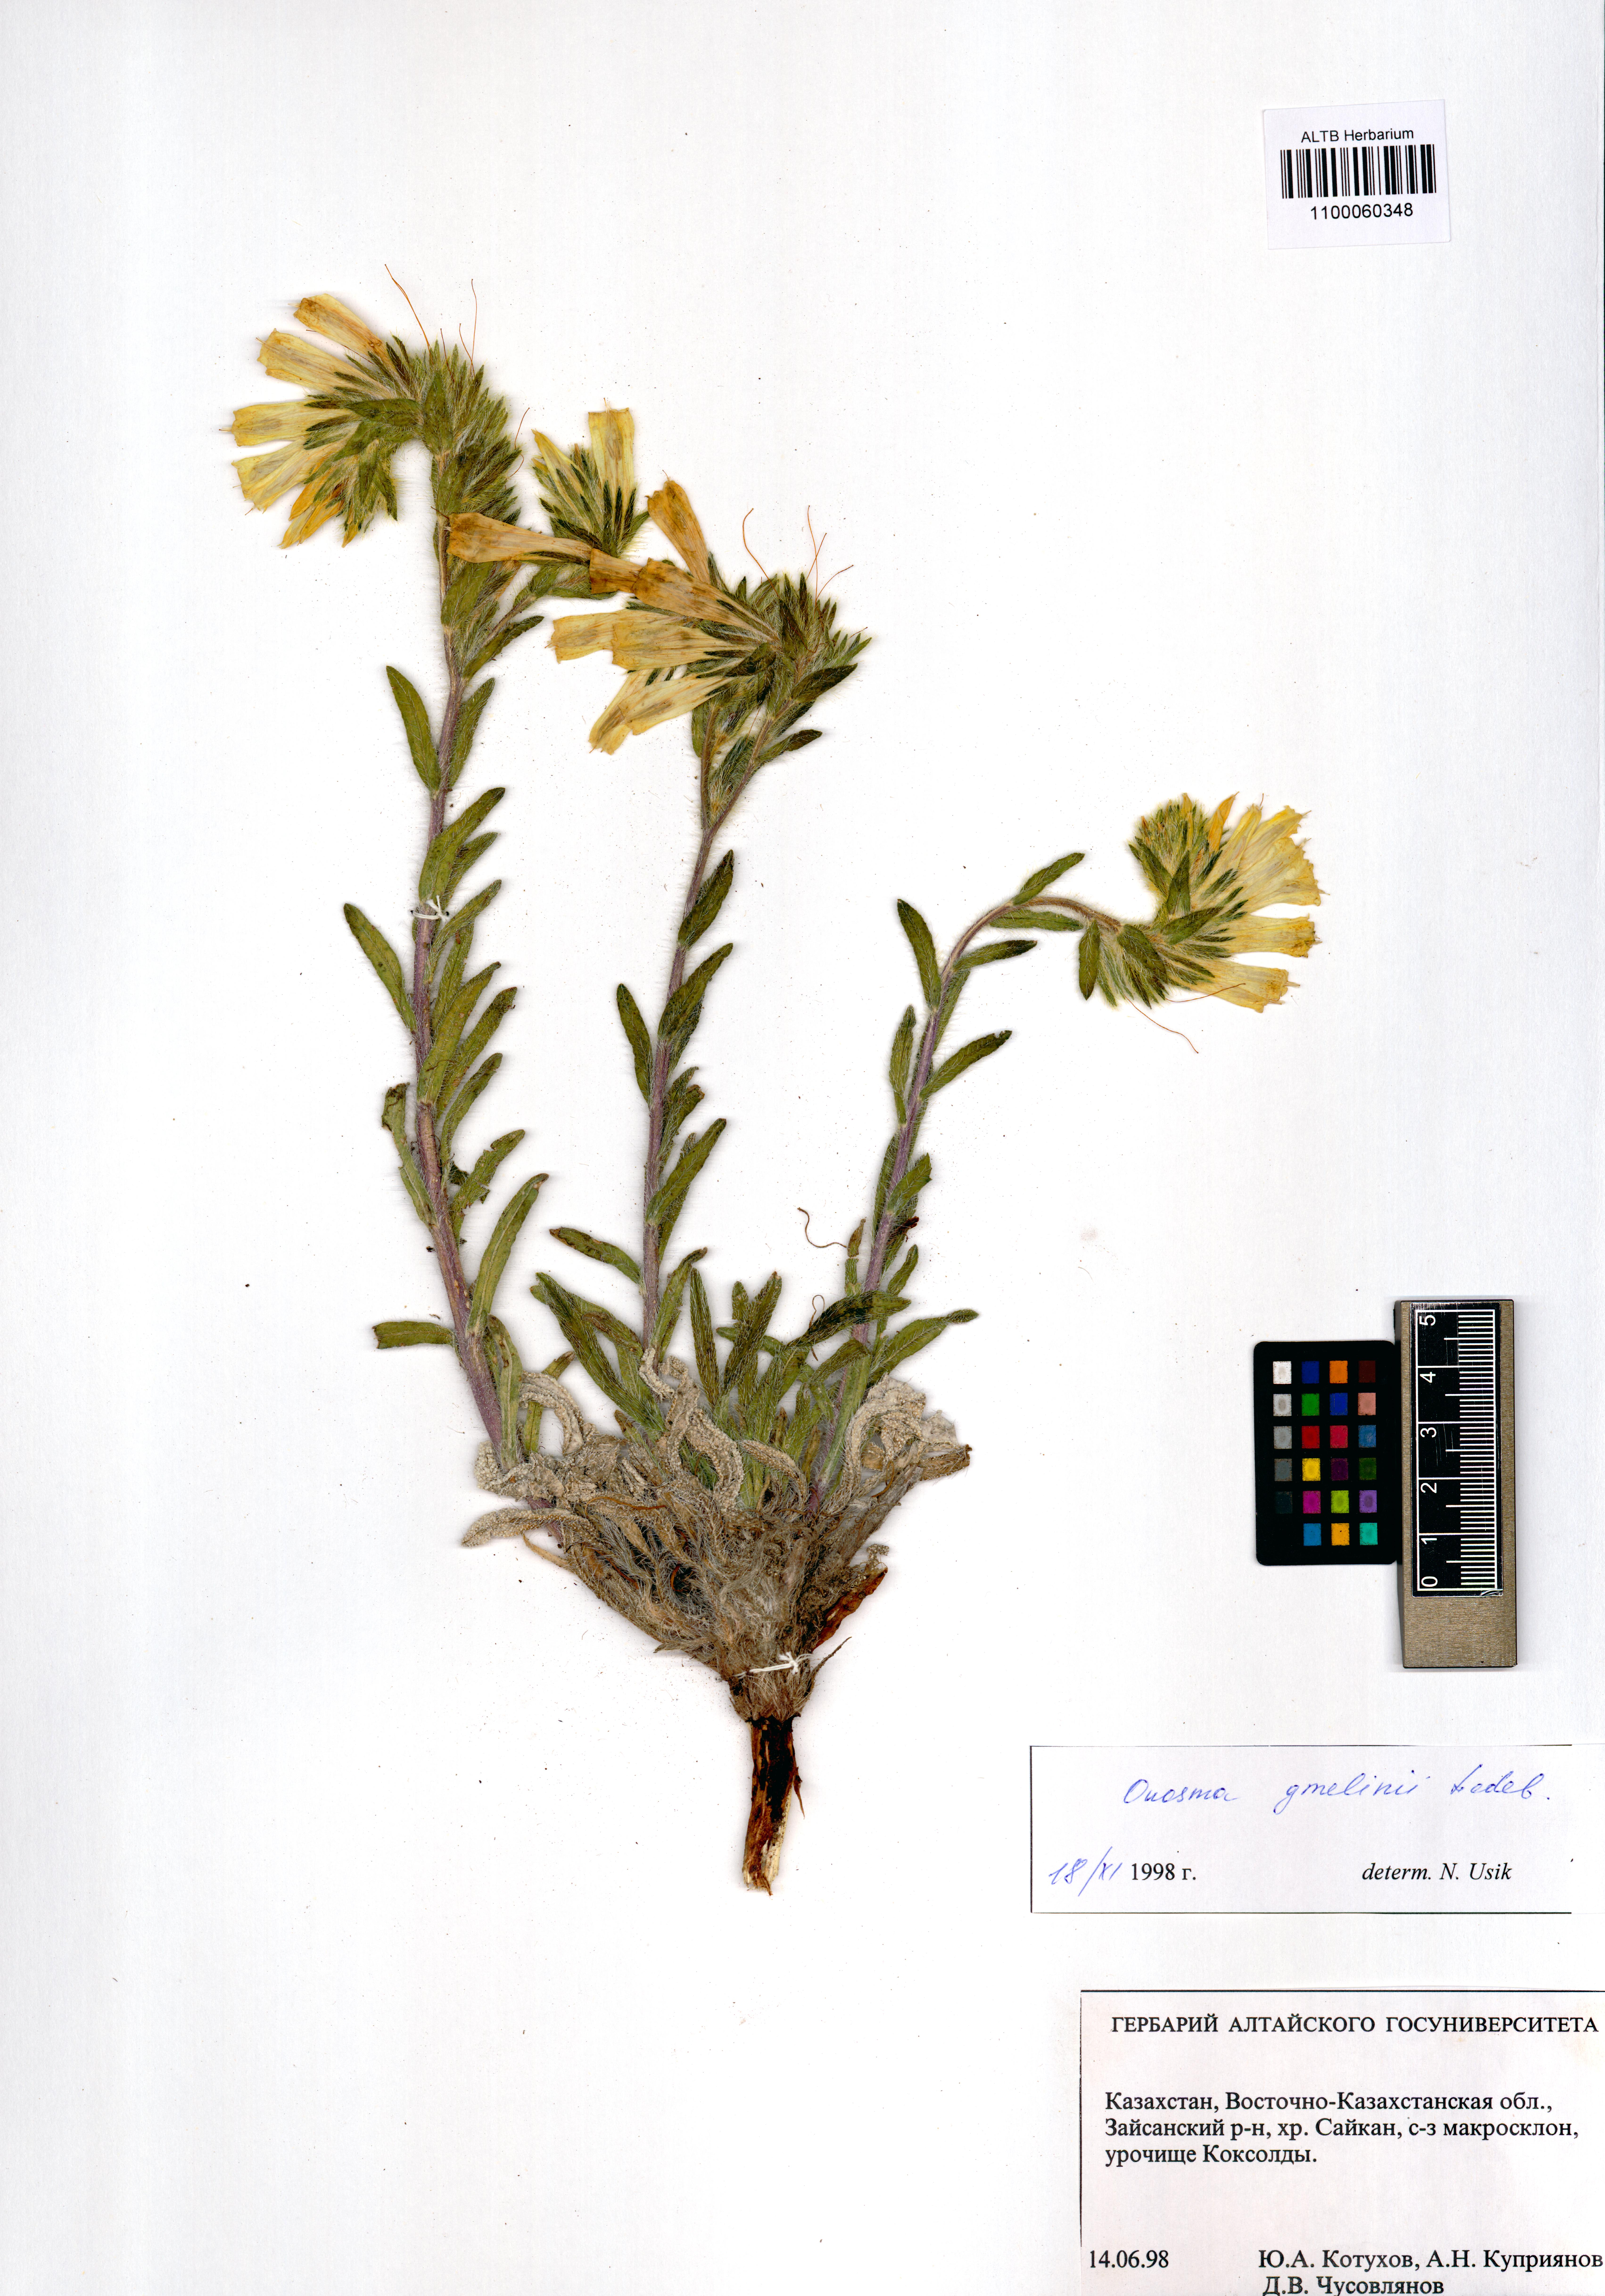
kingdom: Plantae
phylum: Tracheophyta
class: Magnoliopsida
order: Boraginales
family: Boraginaceae
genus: Onosma
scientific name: Onosma gmelinii
